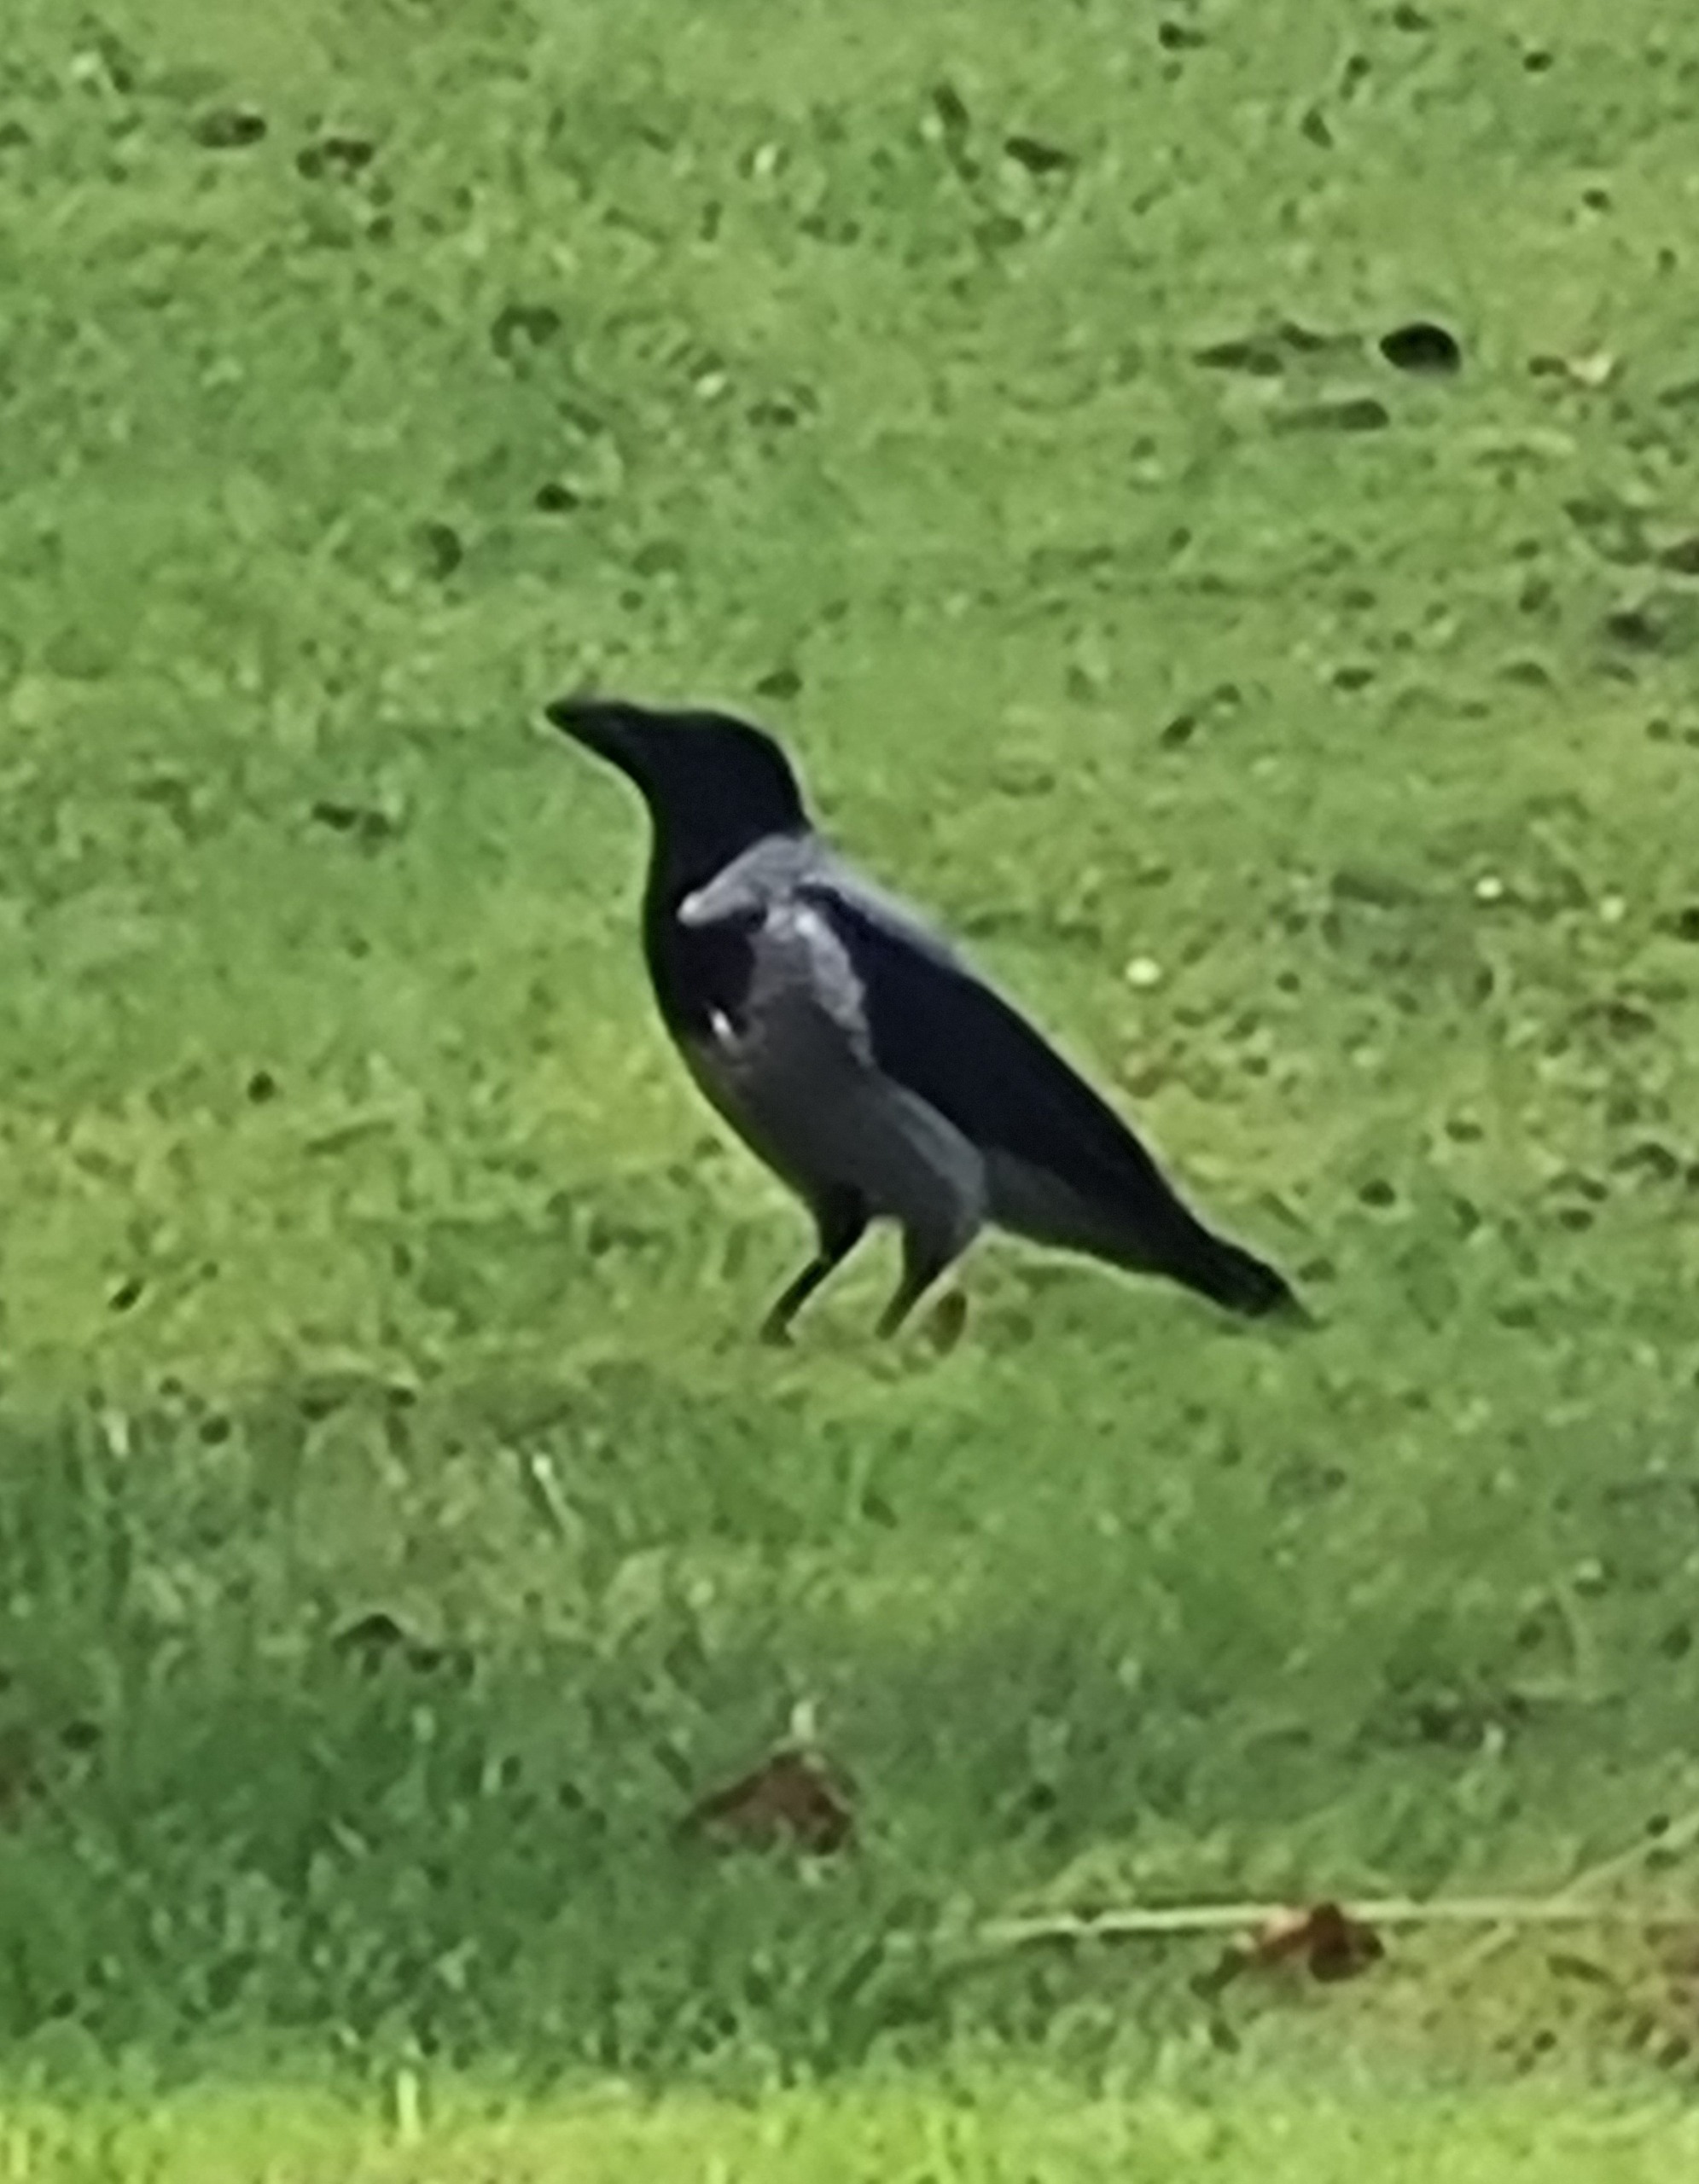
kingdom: Animalia
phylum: Chordata
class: Aves
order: Passeriformes
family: Corvidae
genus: Corvus
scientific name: Corvus cornix
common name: Gråkrage
